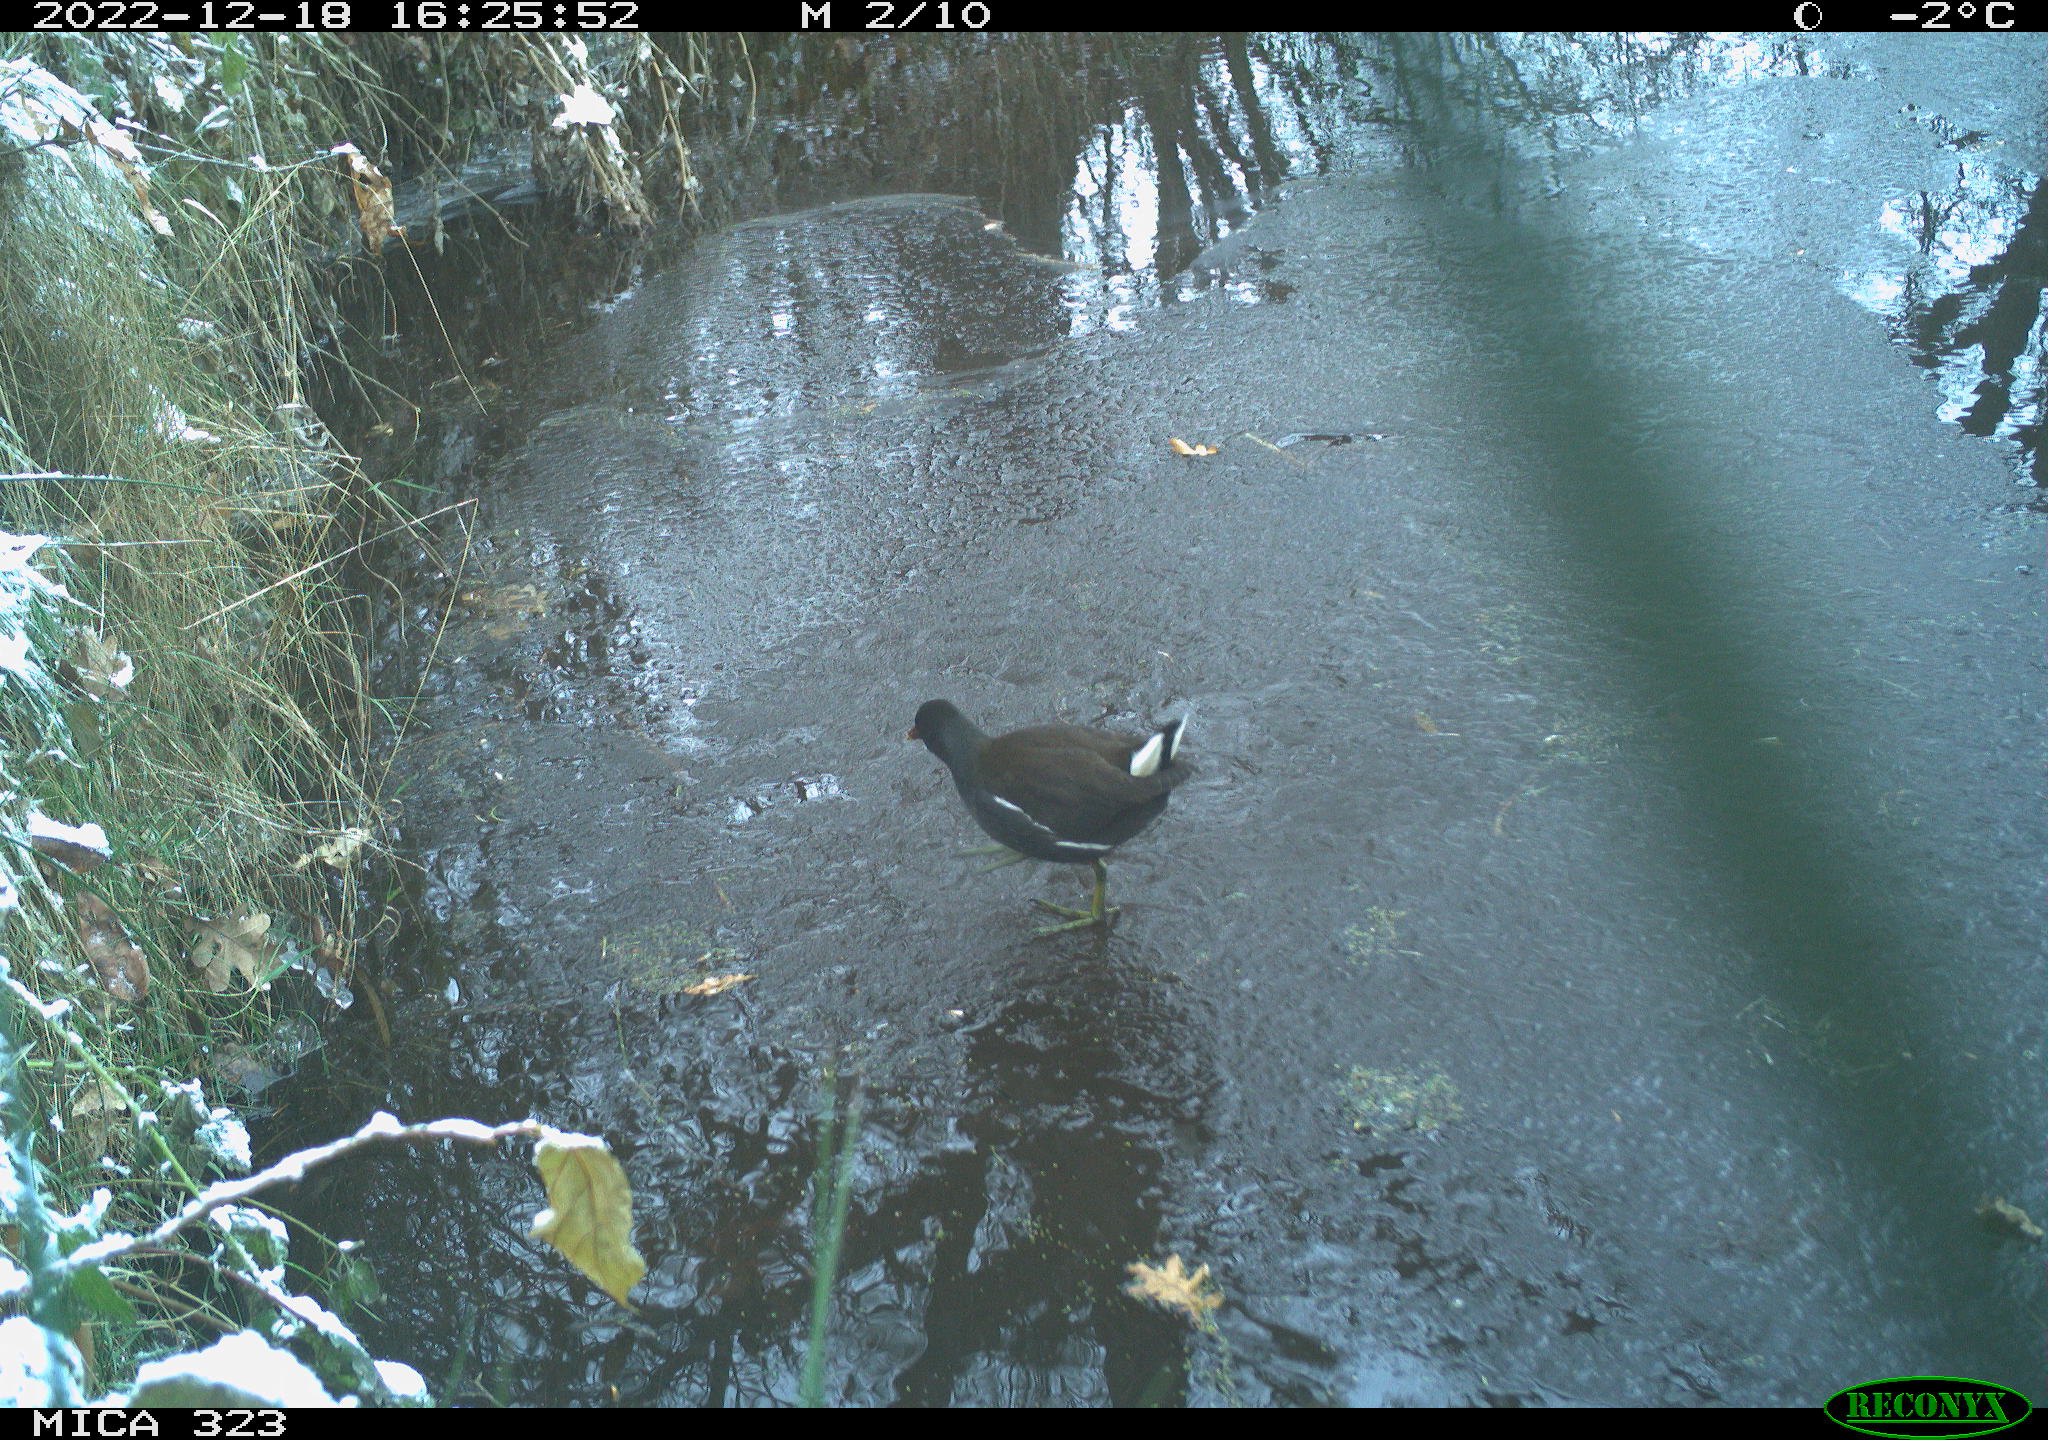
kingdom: Animalia
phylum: Chordata
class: Aves
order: Gruiformes
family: Rallidae
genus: Gallinula
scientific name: Gallinula chloropus
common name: Common moorhen
